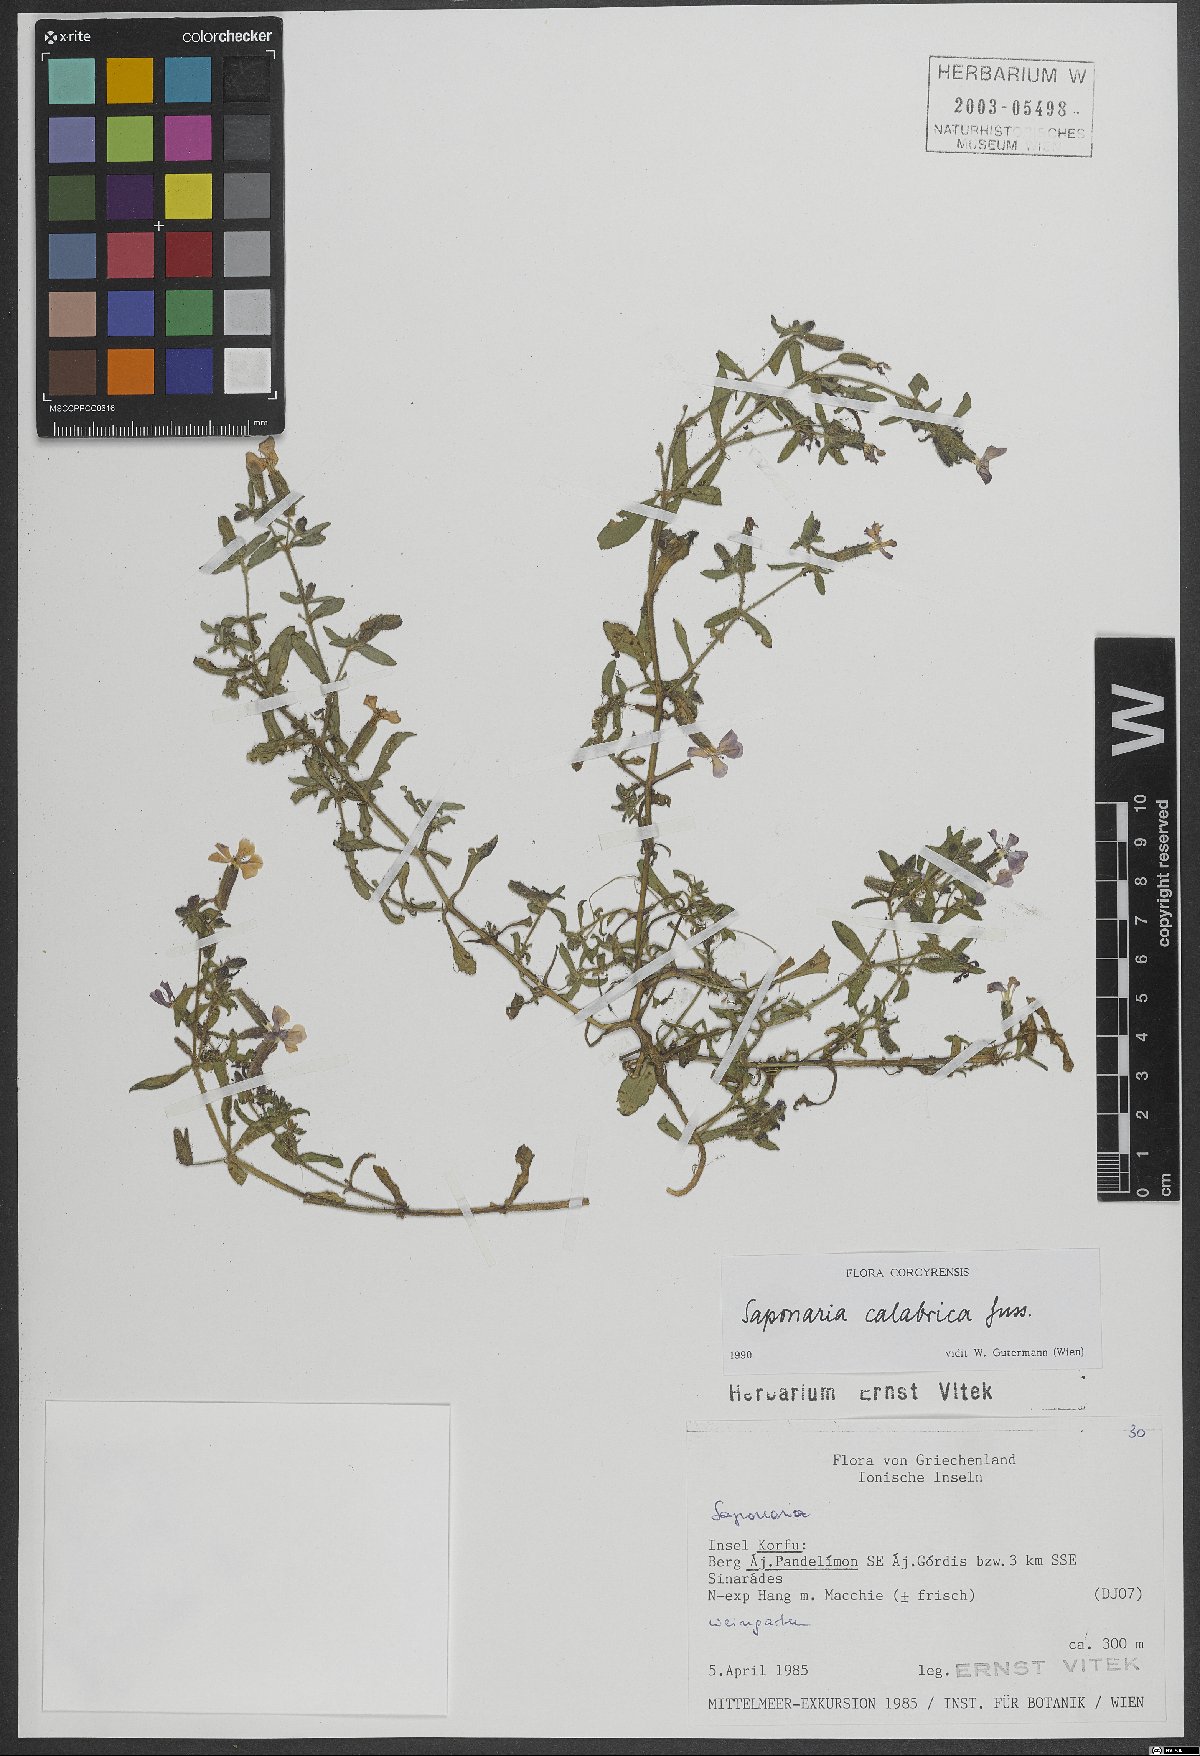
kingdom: Plantae
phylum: Tracheophyta
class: Magnoliopsida
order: Caryophyllales
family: Caryophyllaceae
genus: Saponaria
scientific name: Saponaria calabrica
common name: Adriatic soapwort
